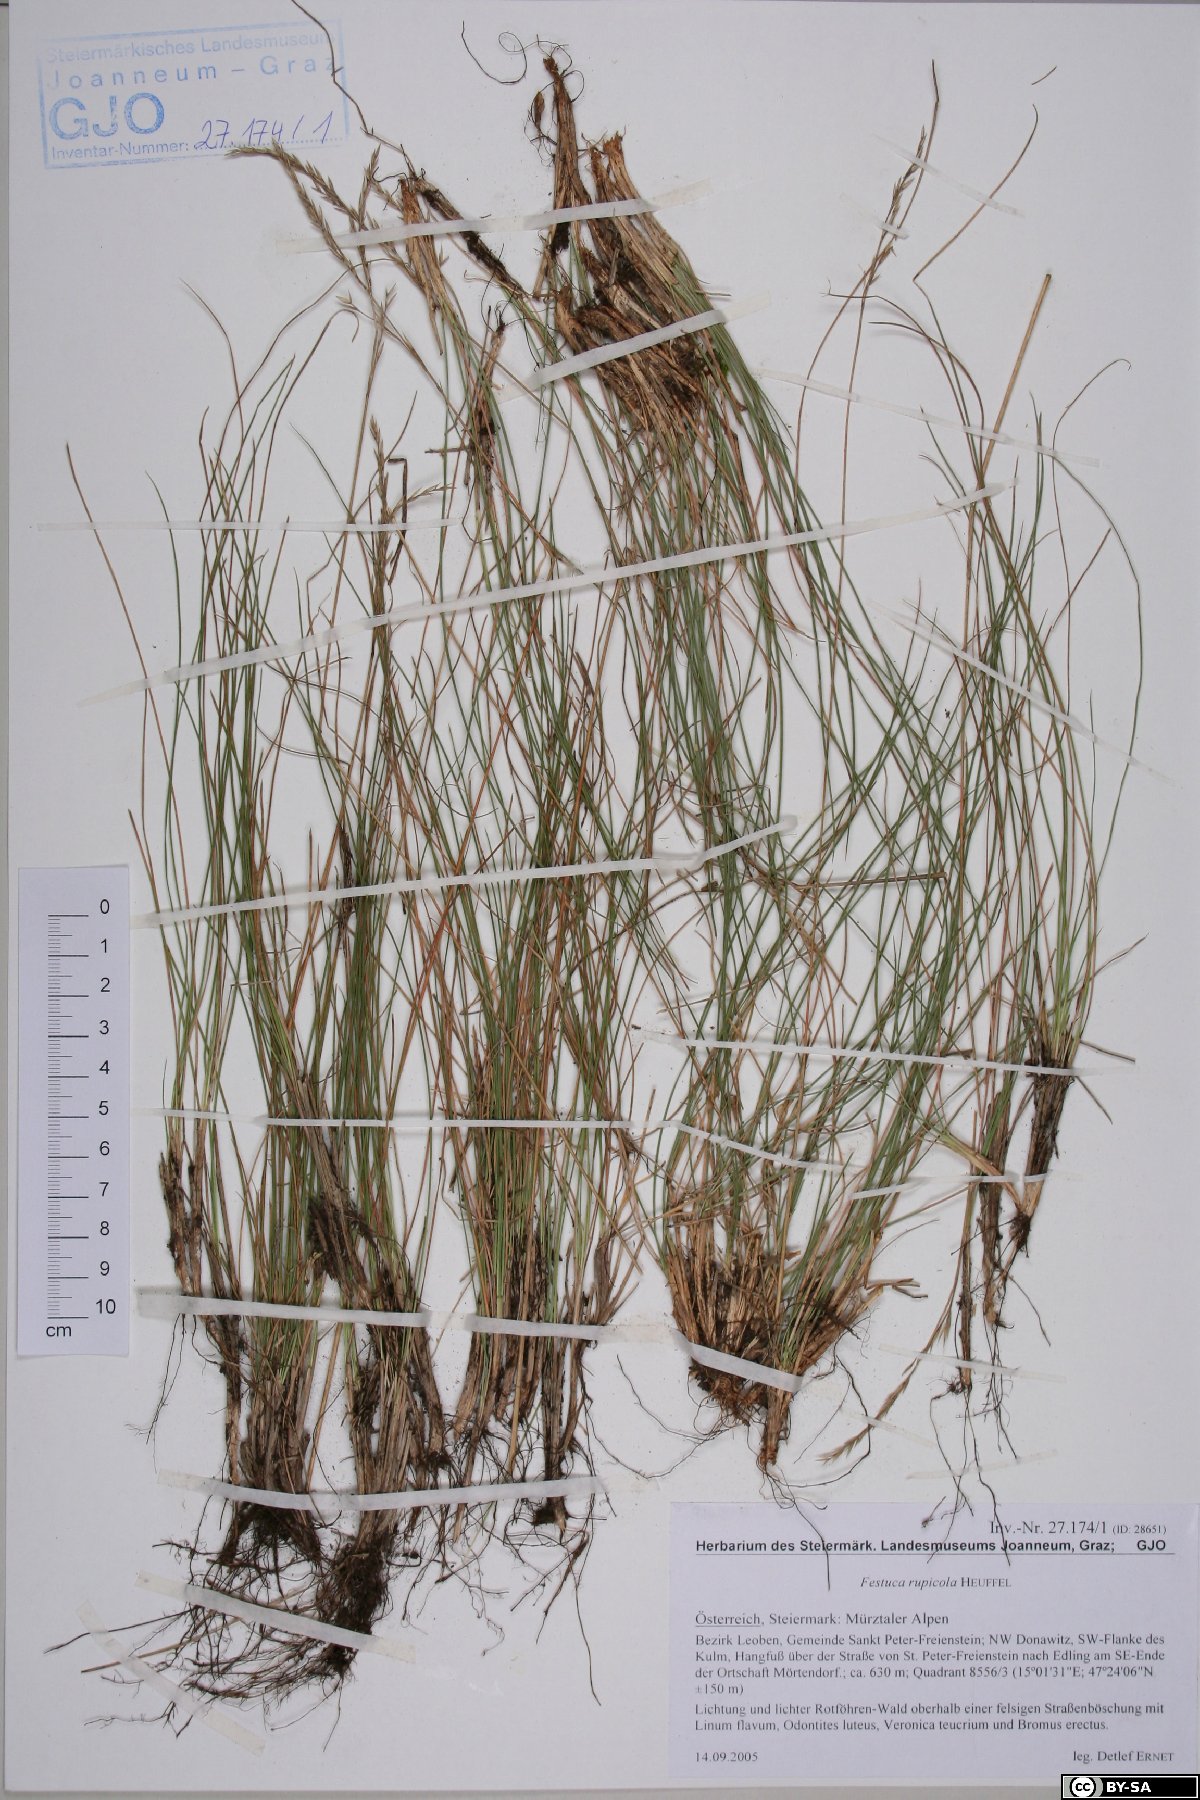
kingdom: Plantae
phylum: Tracheophyta
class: Liliopsida
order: Poales
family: Poaceae
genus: Festuca
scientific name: Festuca rupicola
